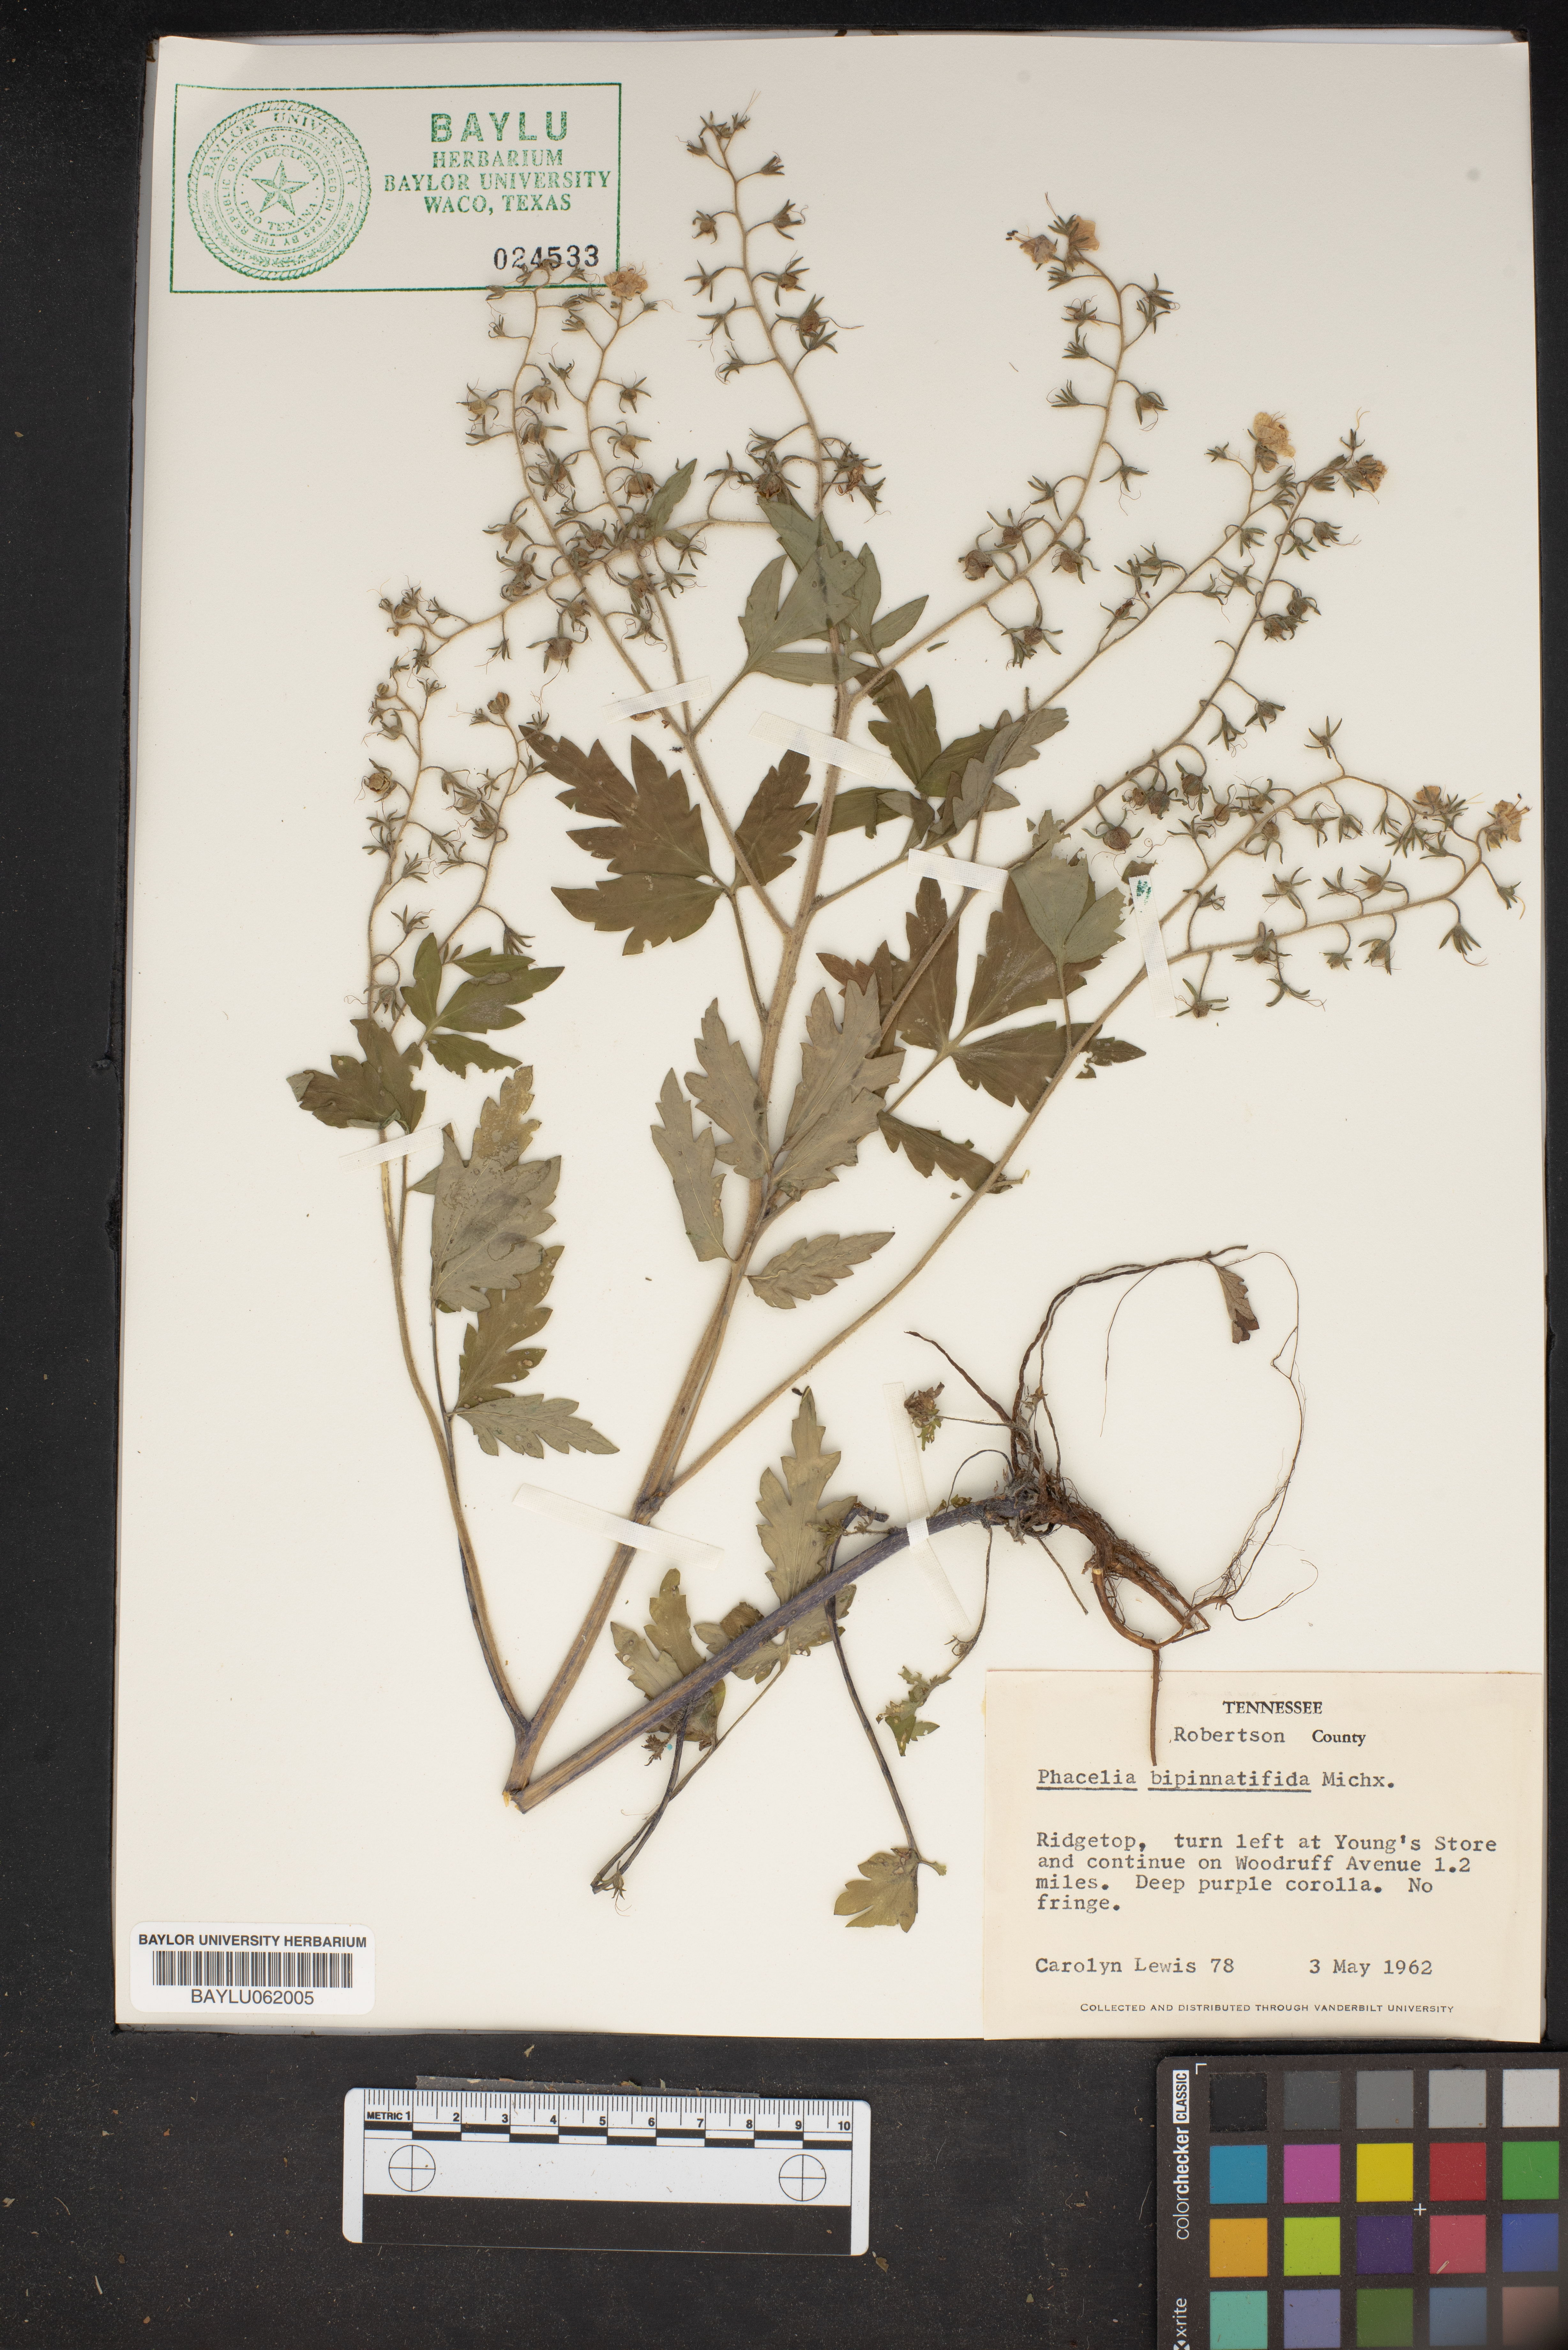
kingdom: Plantae
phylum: Tracheophyta
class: Magnoliopsida
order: Boraginales
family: Hydrophyllaceae
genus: Phacelia
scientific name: Phacelia bipinnatifida
